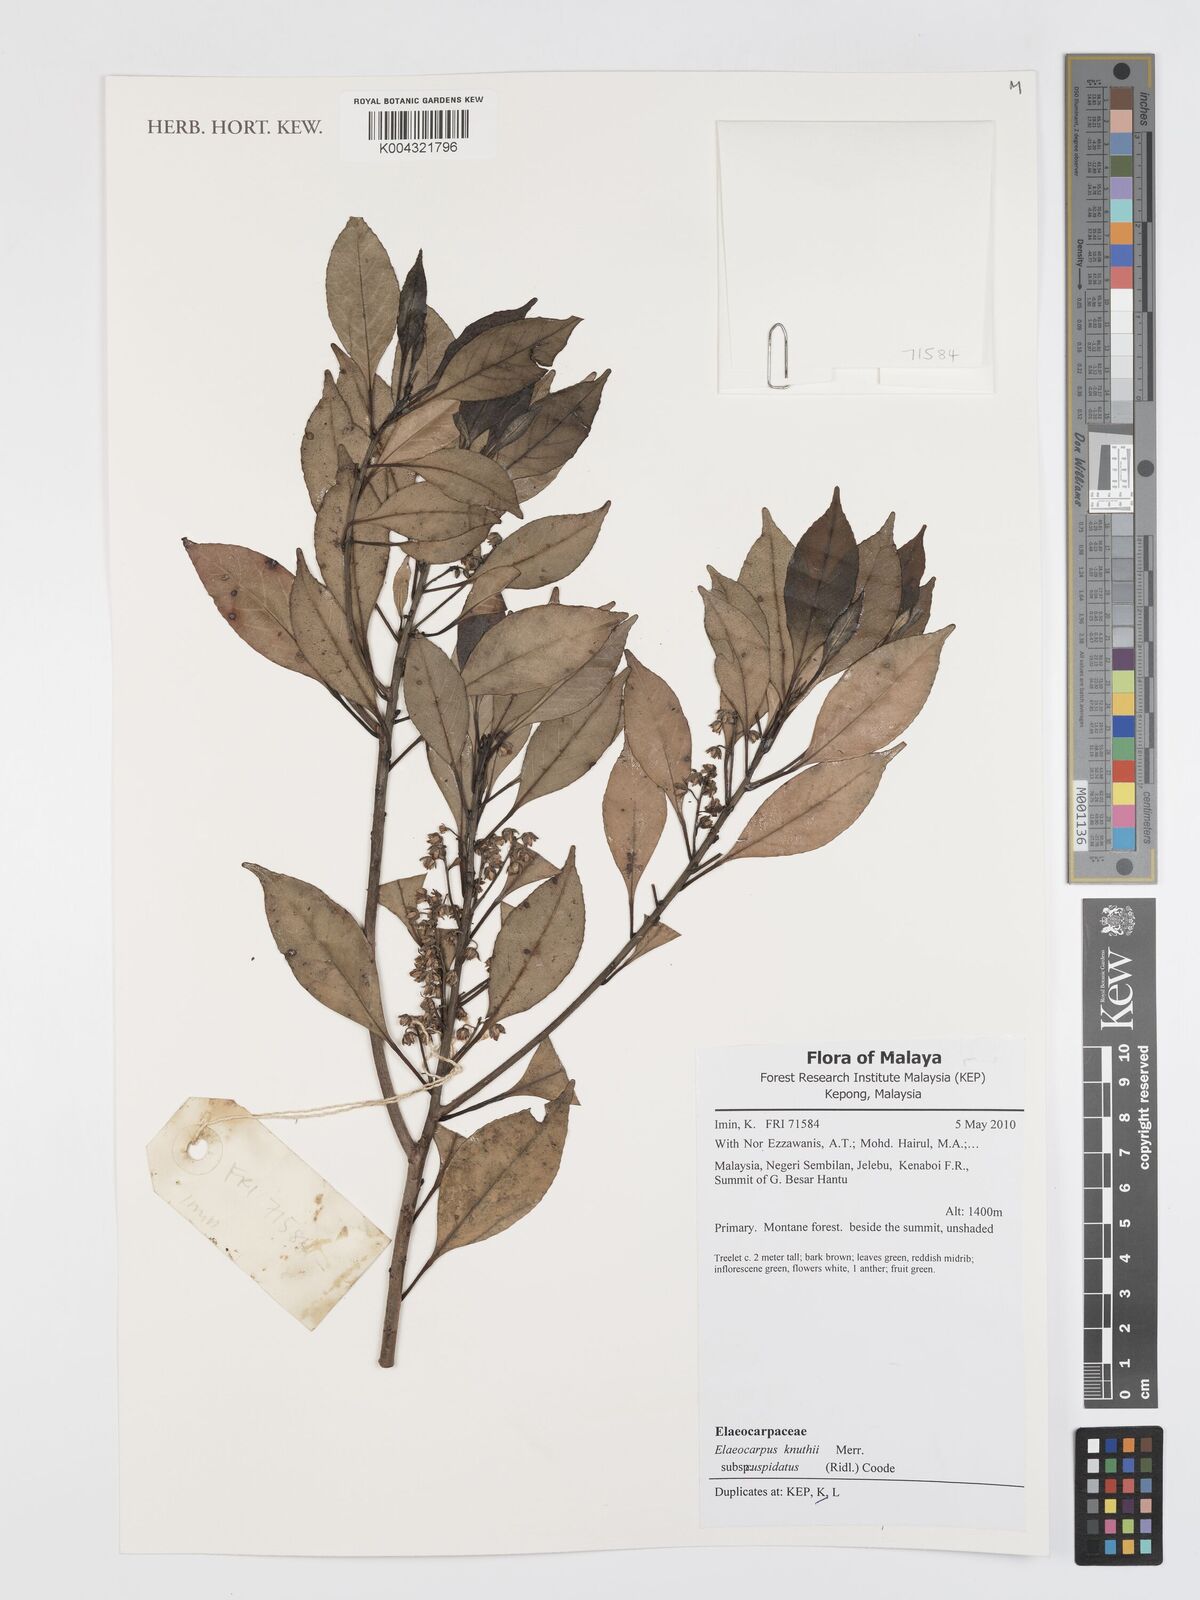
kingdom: Plantae
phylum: Tracheophyta
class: Magnoliopsida
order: Oxalidales
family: Elaeocarpaceae
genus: Elaeocarpus
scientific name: Elaeocarpus knuthii
